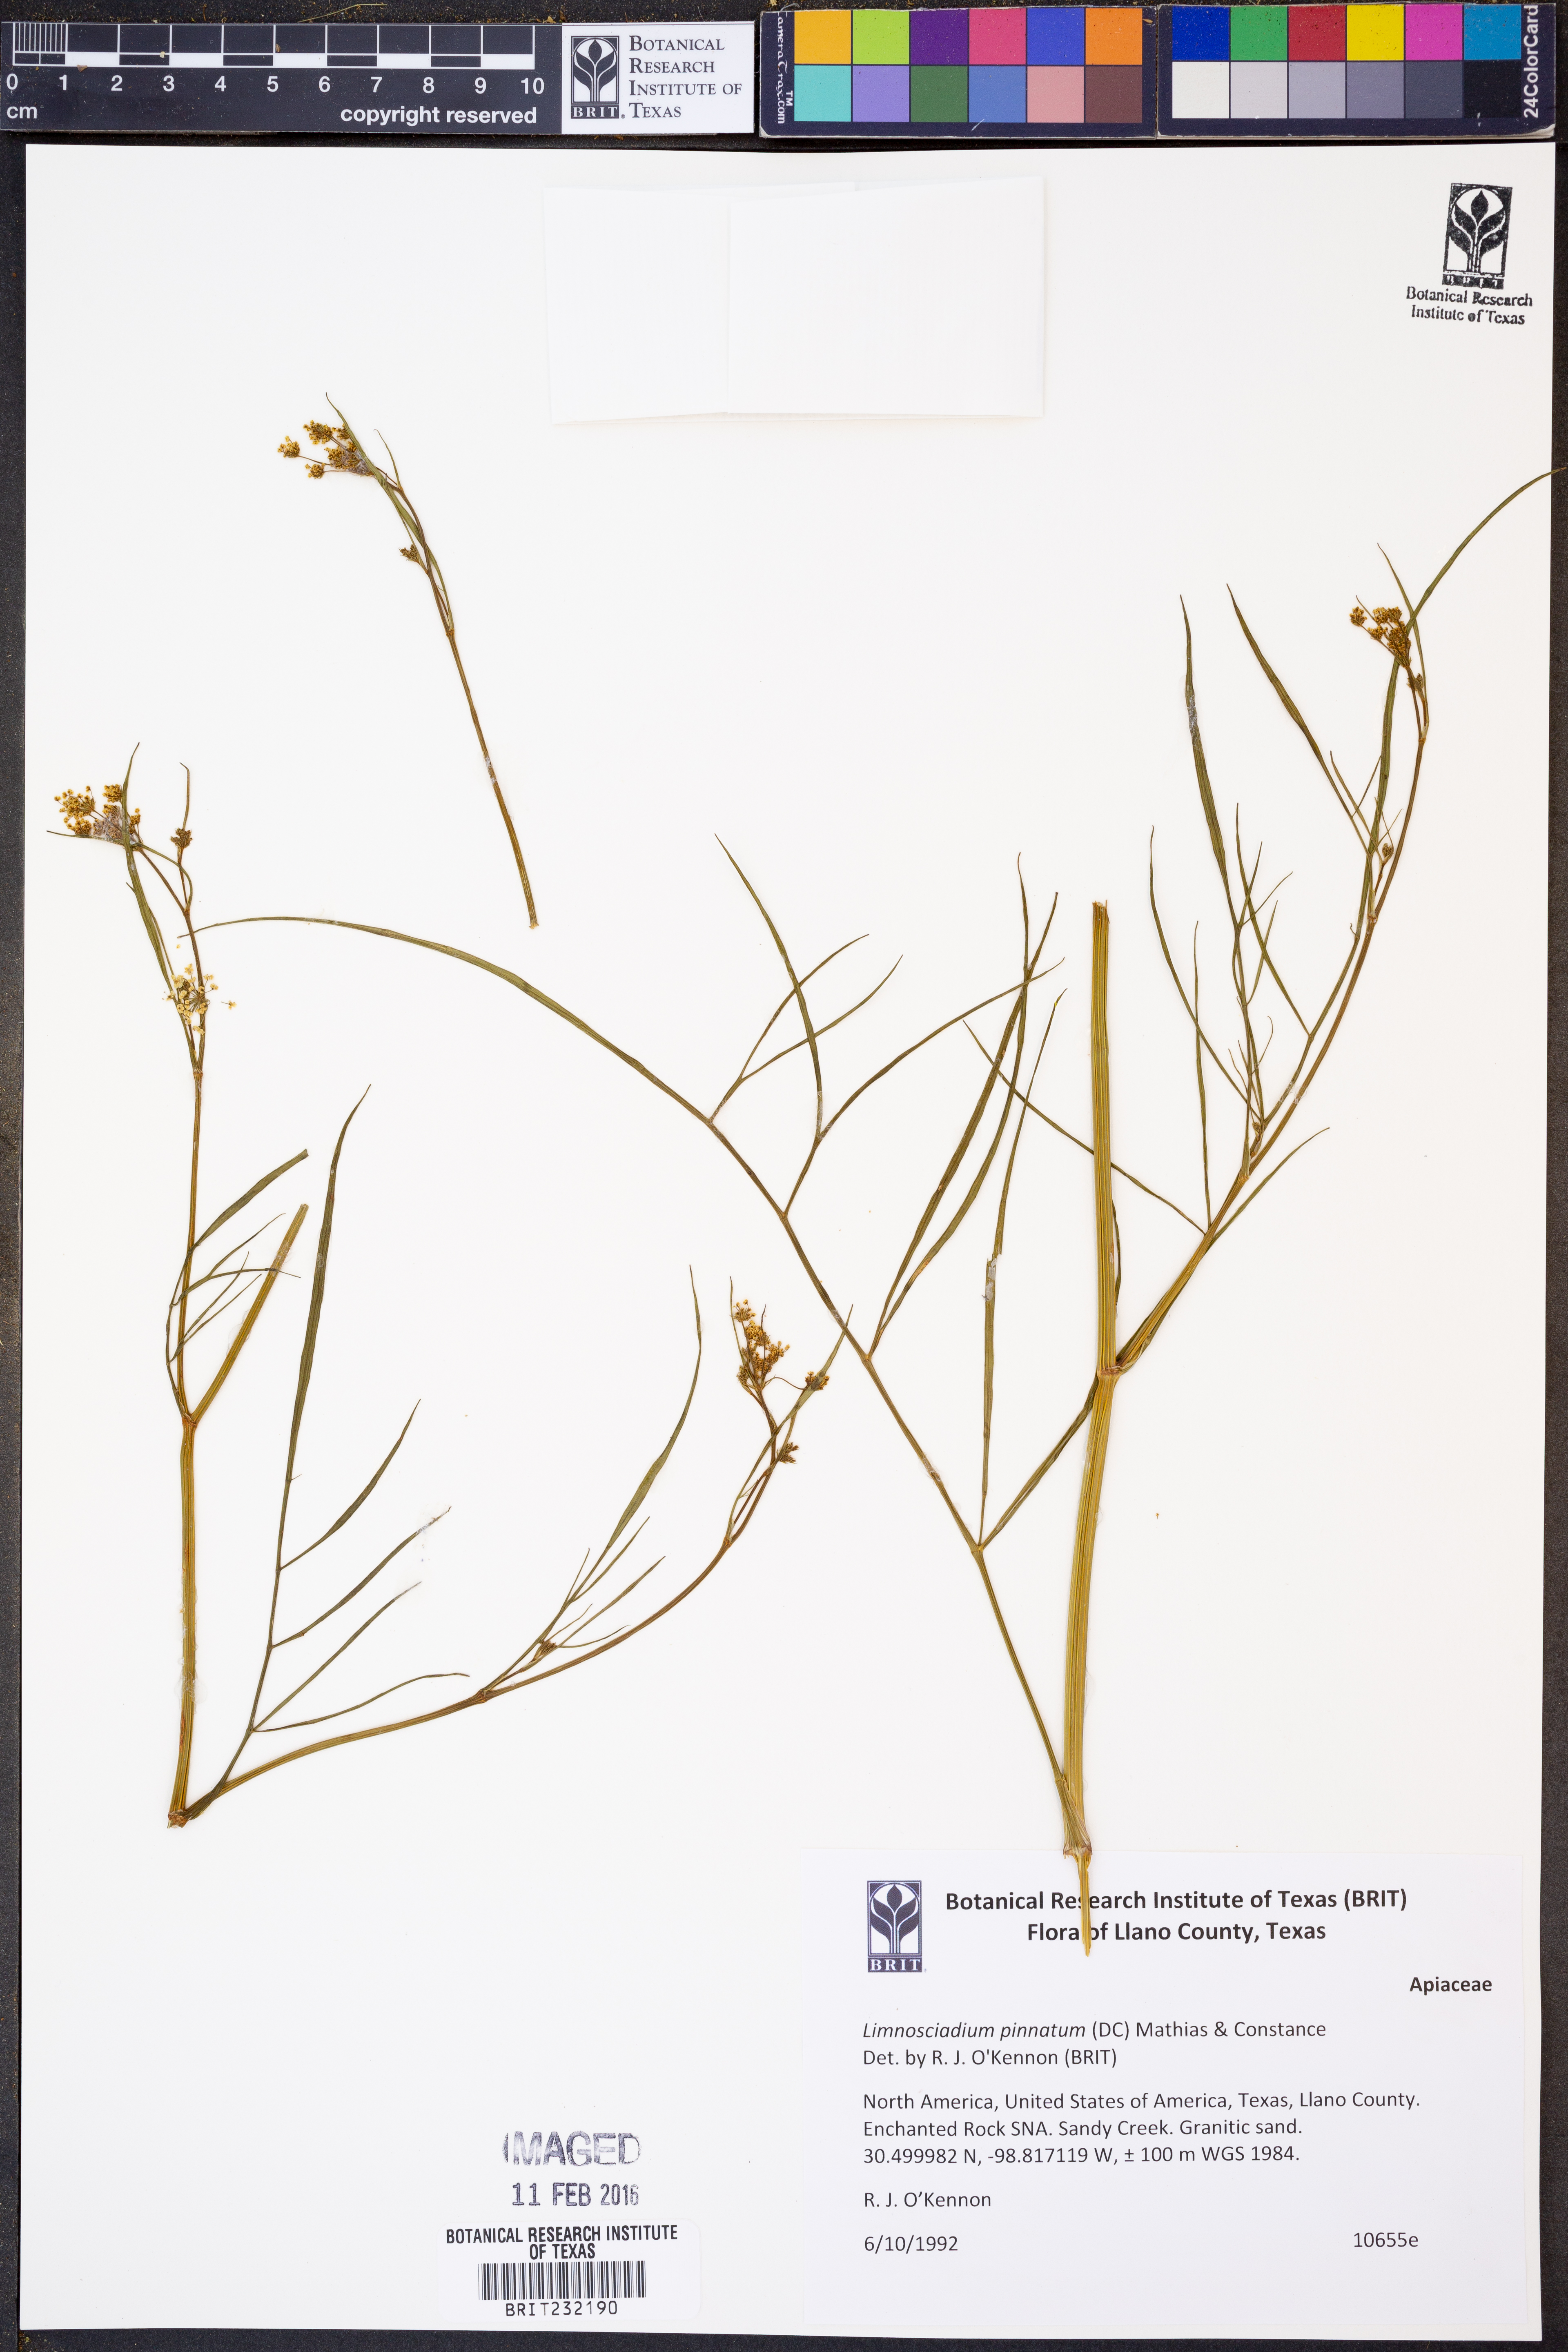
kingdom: Plantae
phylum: Tracheophyta
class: Magnoliopsida
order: Apiales
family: Apiaceae
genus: Limnosciadium
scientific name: Limnosciadium pinnatum
